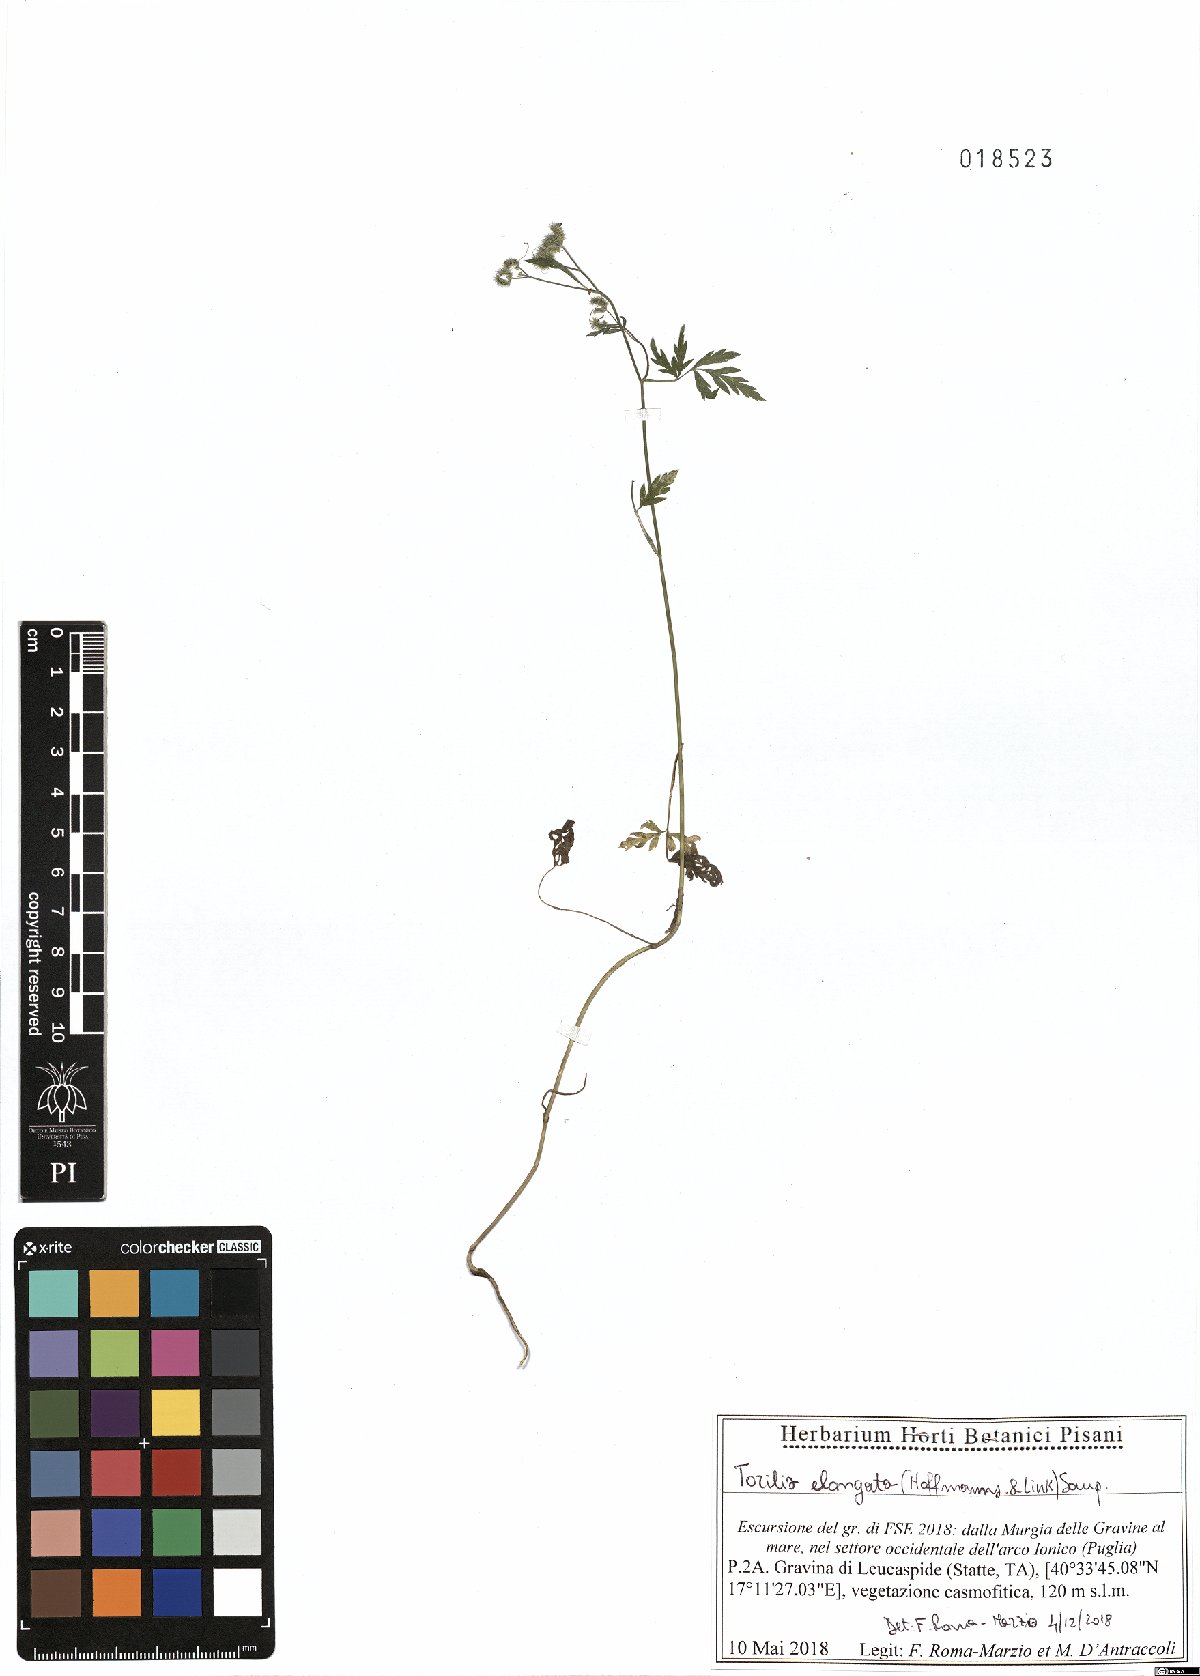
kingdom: Plantae
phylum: Tracheophyta
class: Magnoliopsida
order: Apiales
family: Apiaceae
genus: Torilis
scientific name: Torilis elongata
